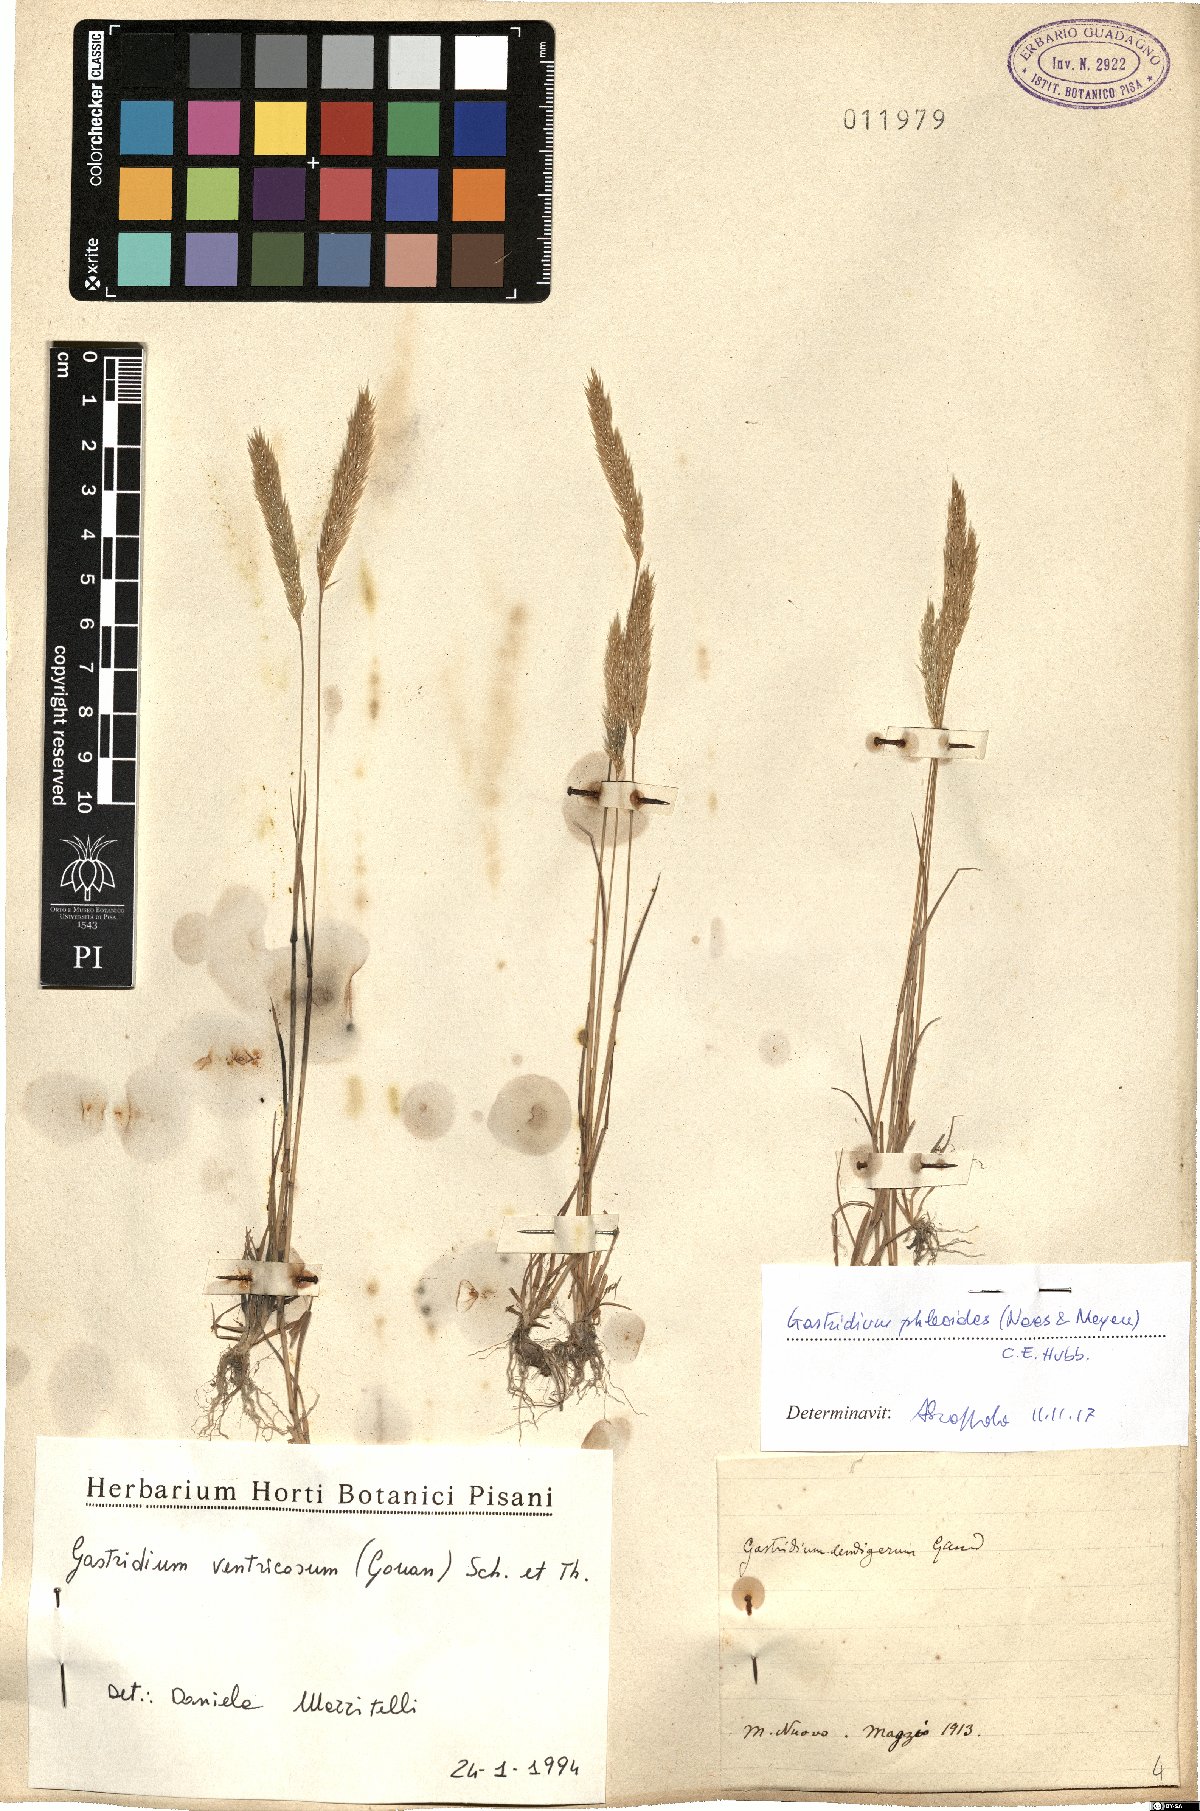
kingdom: Plantae
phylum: Tracheophyta
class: Liliopsida
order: Poales
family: Poaceae
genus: Gastridium
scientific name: Gastridium phleoides
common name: Nit grass
